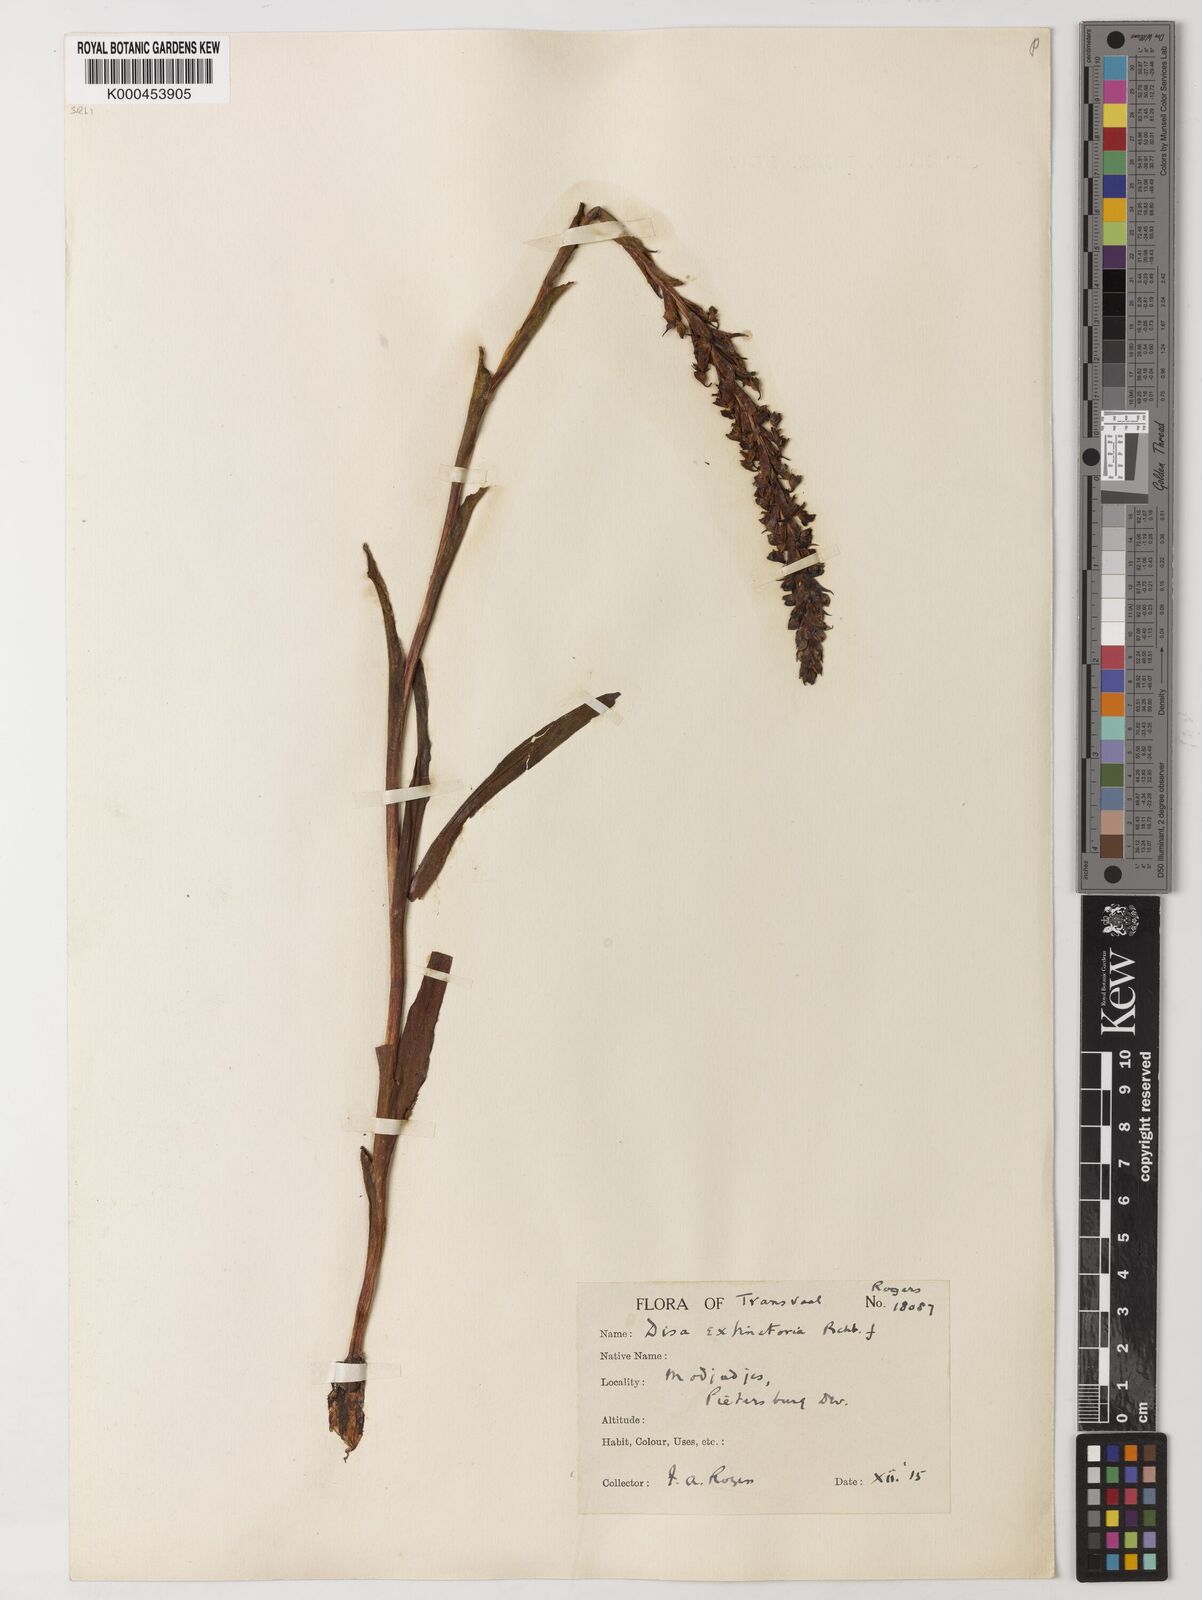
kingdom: Plantae
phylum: Tracheophyta
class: Liliopsida
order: Asparagales
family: Orchidaceae
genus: Disa
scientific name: Disa extinctoria
